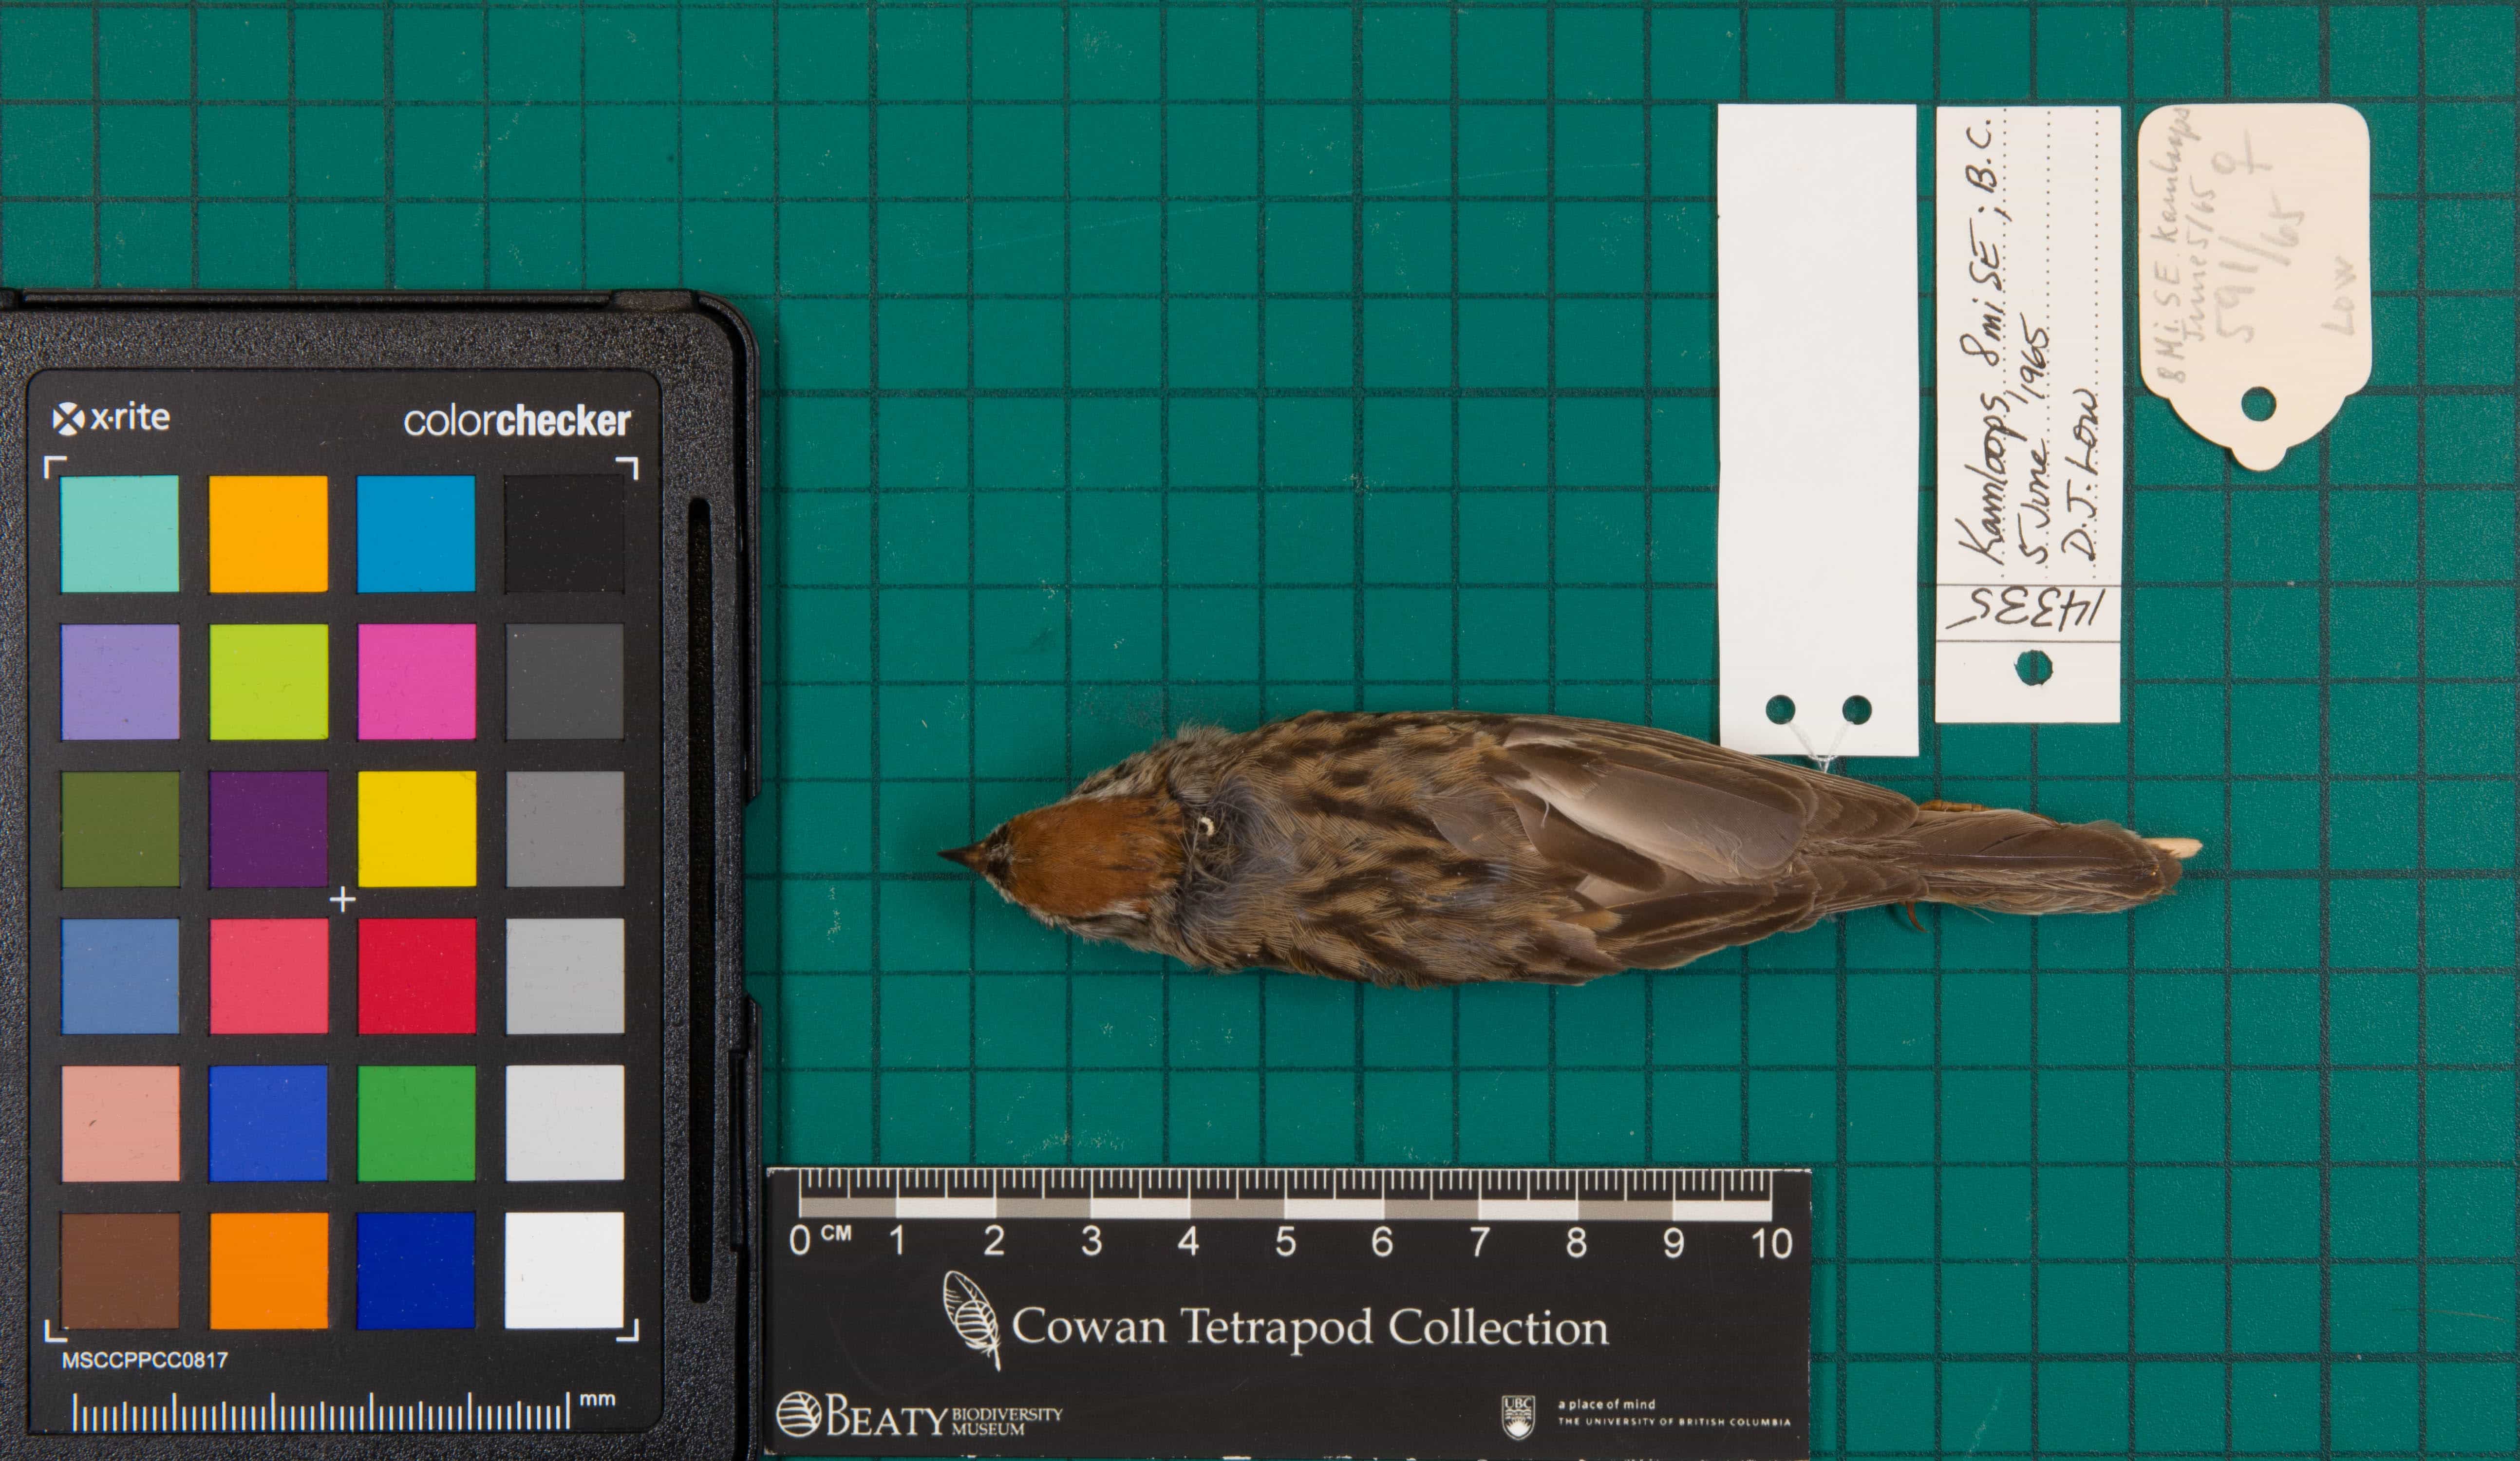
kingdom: Animalia
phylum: Chordata
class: Aves
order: Passeriformes
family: Passerellidae
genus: Spizella
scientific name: Spizella passerina
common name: Chipping Sparrow
